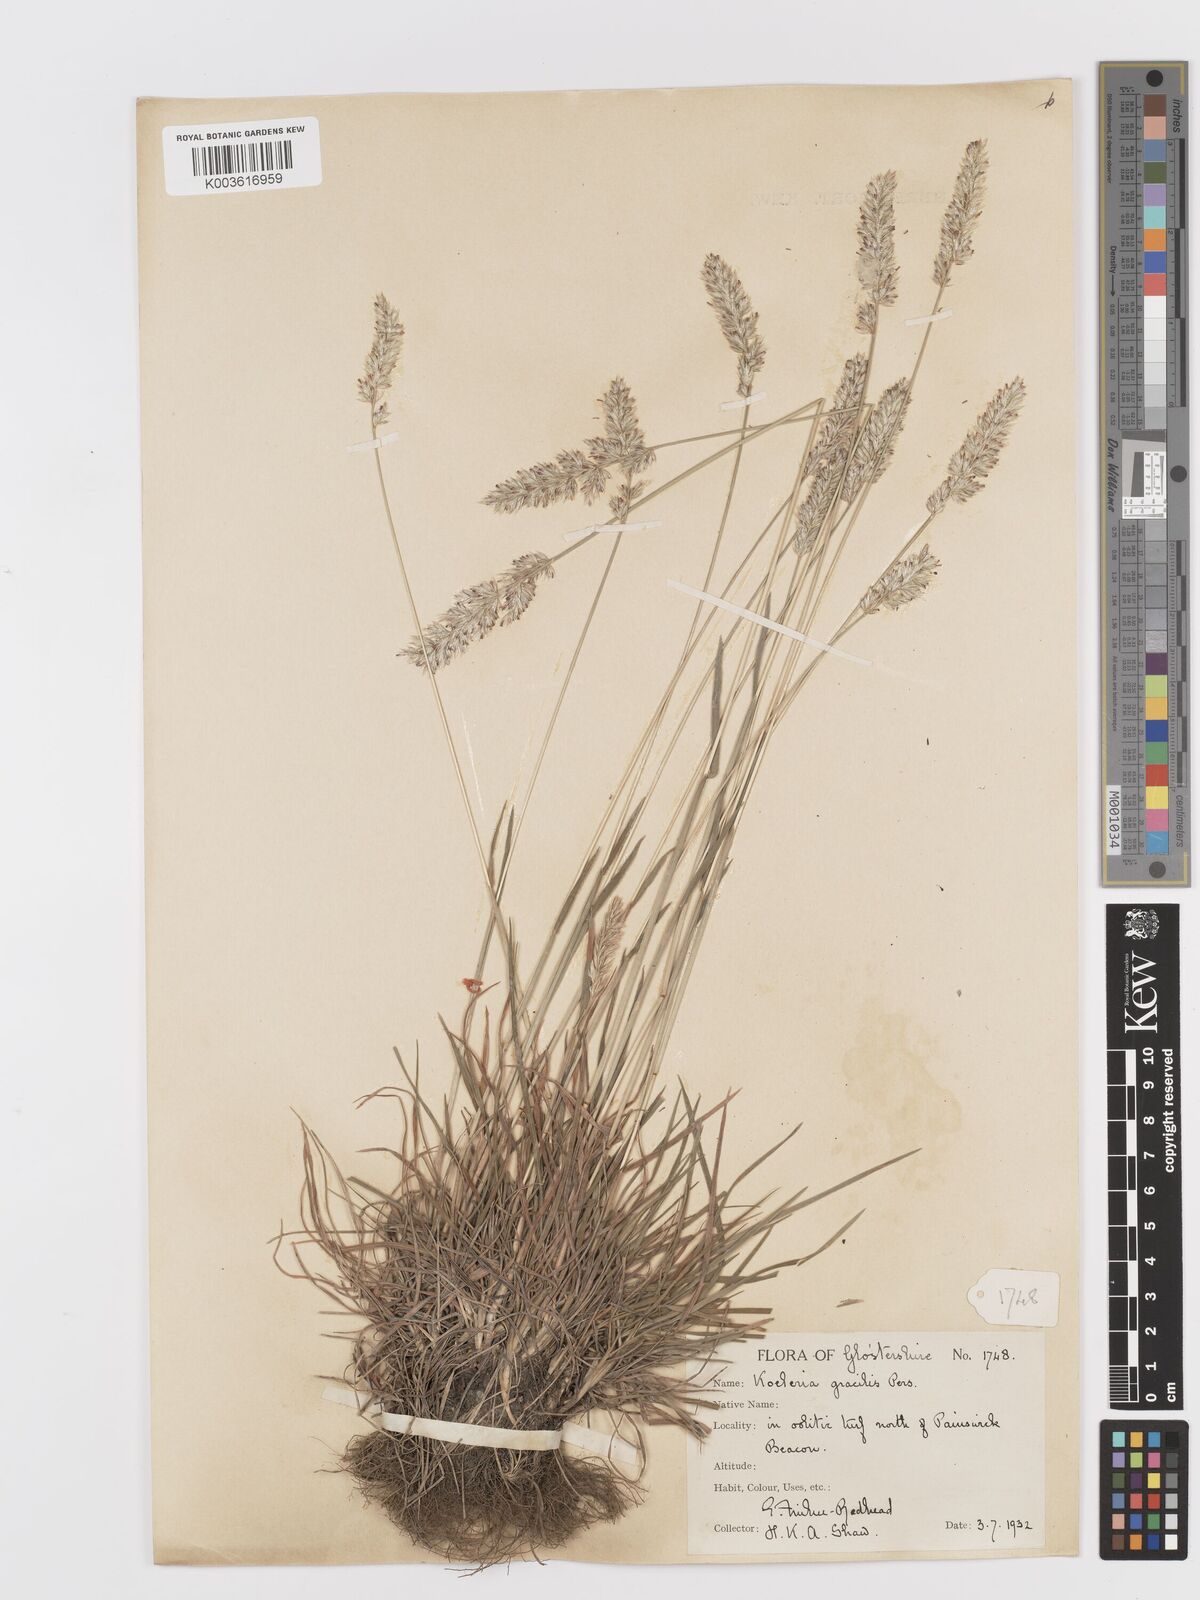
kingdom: Plantae
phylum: Tracheophyta
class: Liliopsida
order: Poales
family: Poaceae
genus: Koeleria
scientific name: Koeleria macrantha
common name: Crested hair-grass
